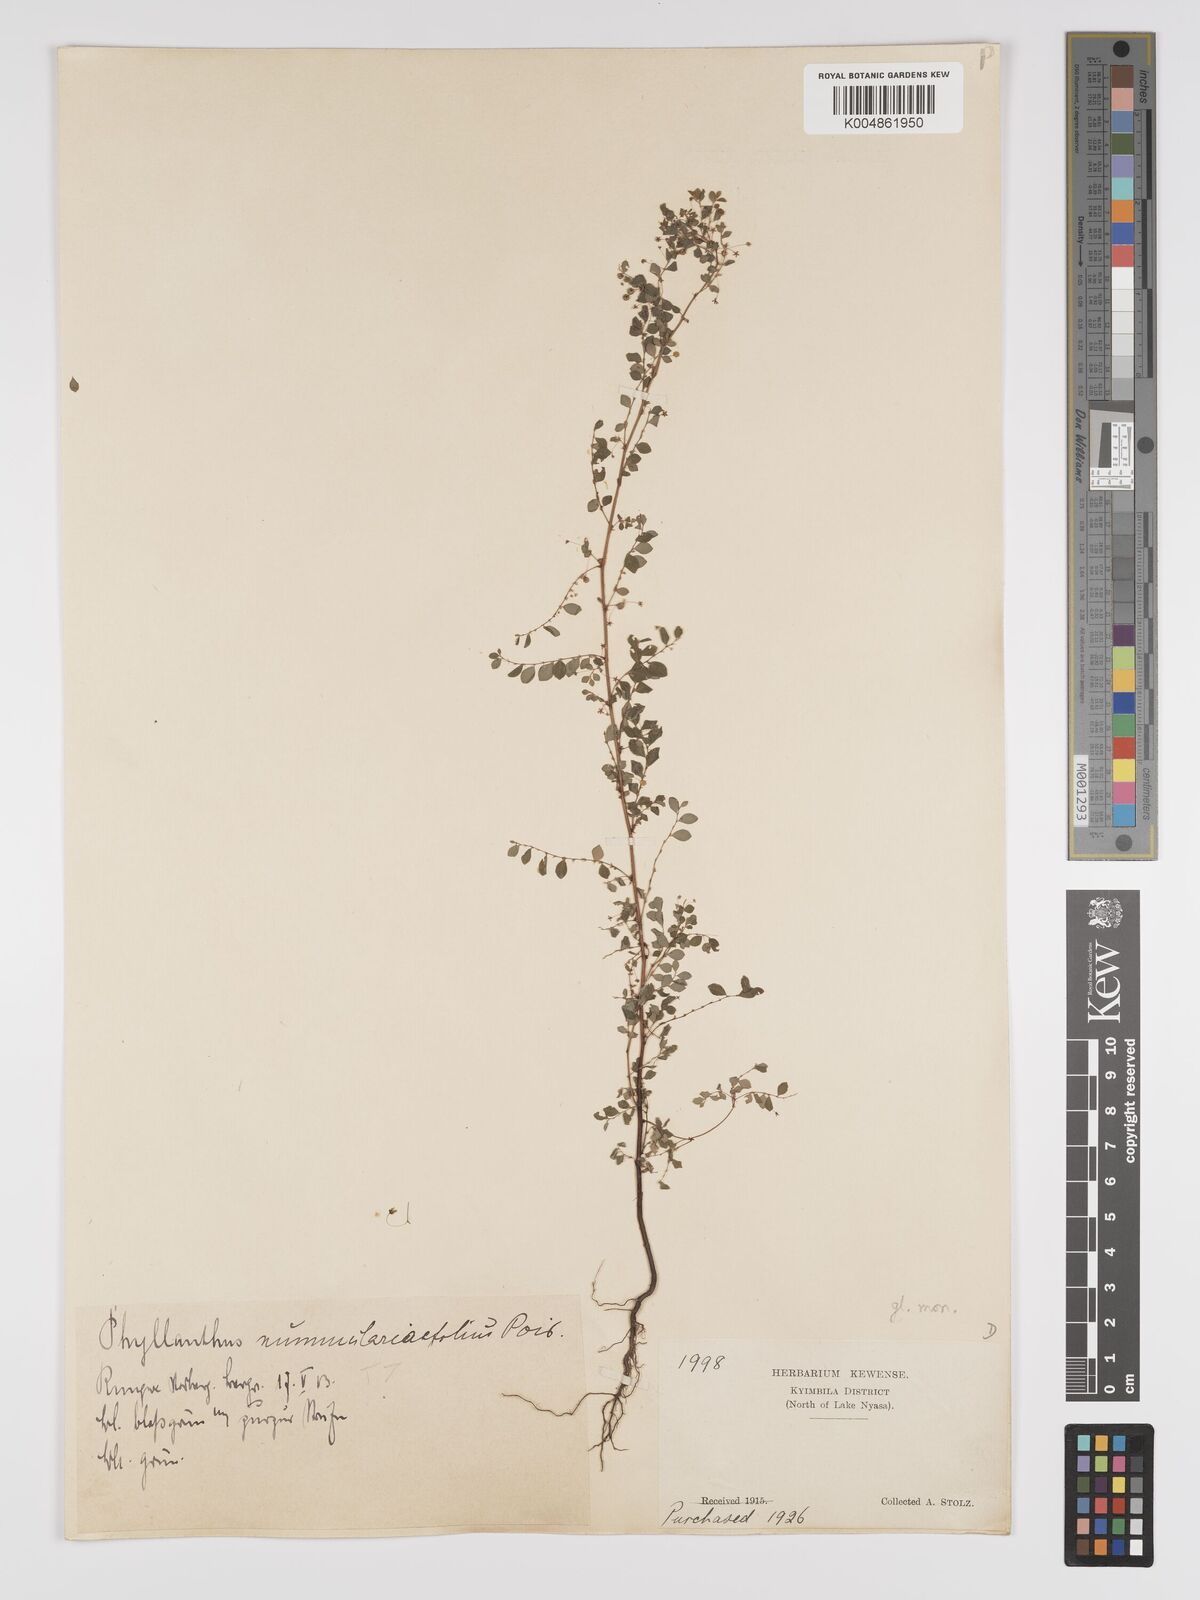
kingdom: Plantae
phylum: Tracheophyta
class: Magnoliopsida
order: Malpighiales
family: Phyllanthaceae
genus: Phyllanthus
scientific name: Phyllanthus nummulariifolius
